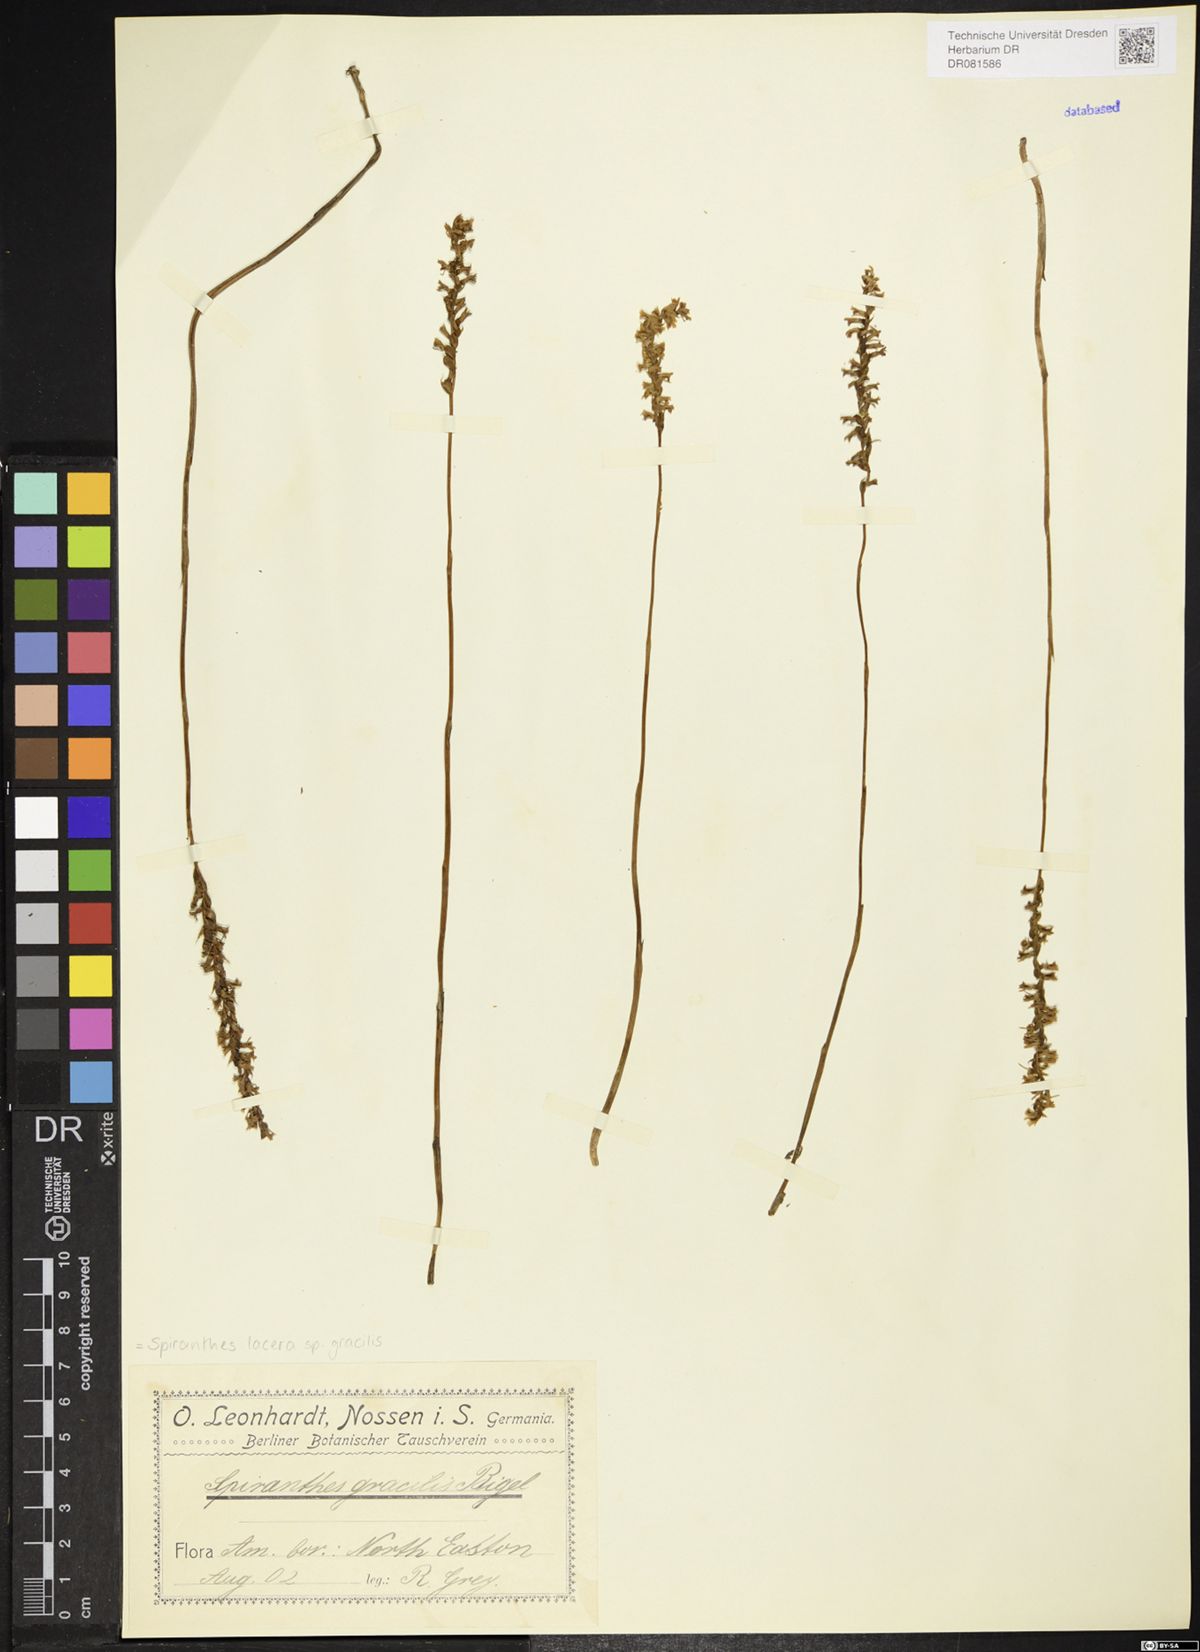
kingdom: Plantae
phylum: Tracheophyta
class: Liliopsida
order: Asparagales
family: Orchidaceae
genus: Spiranthes
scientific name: Spiranthes lacera
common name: Northern slender ladies'-tresses
